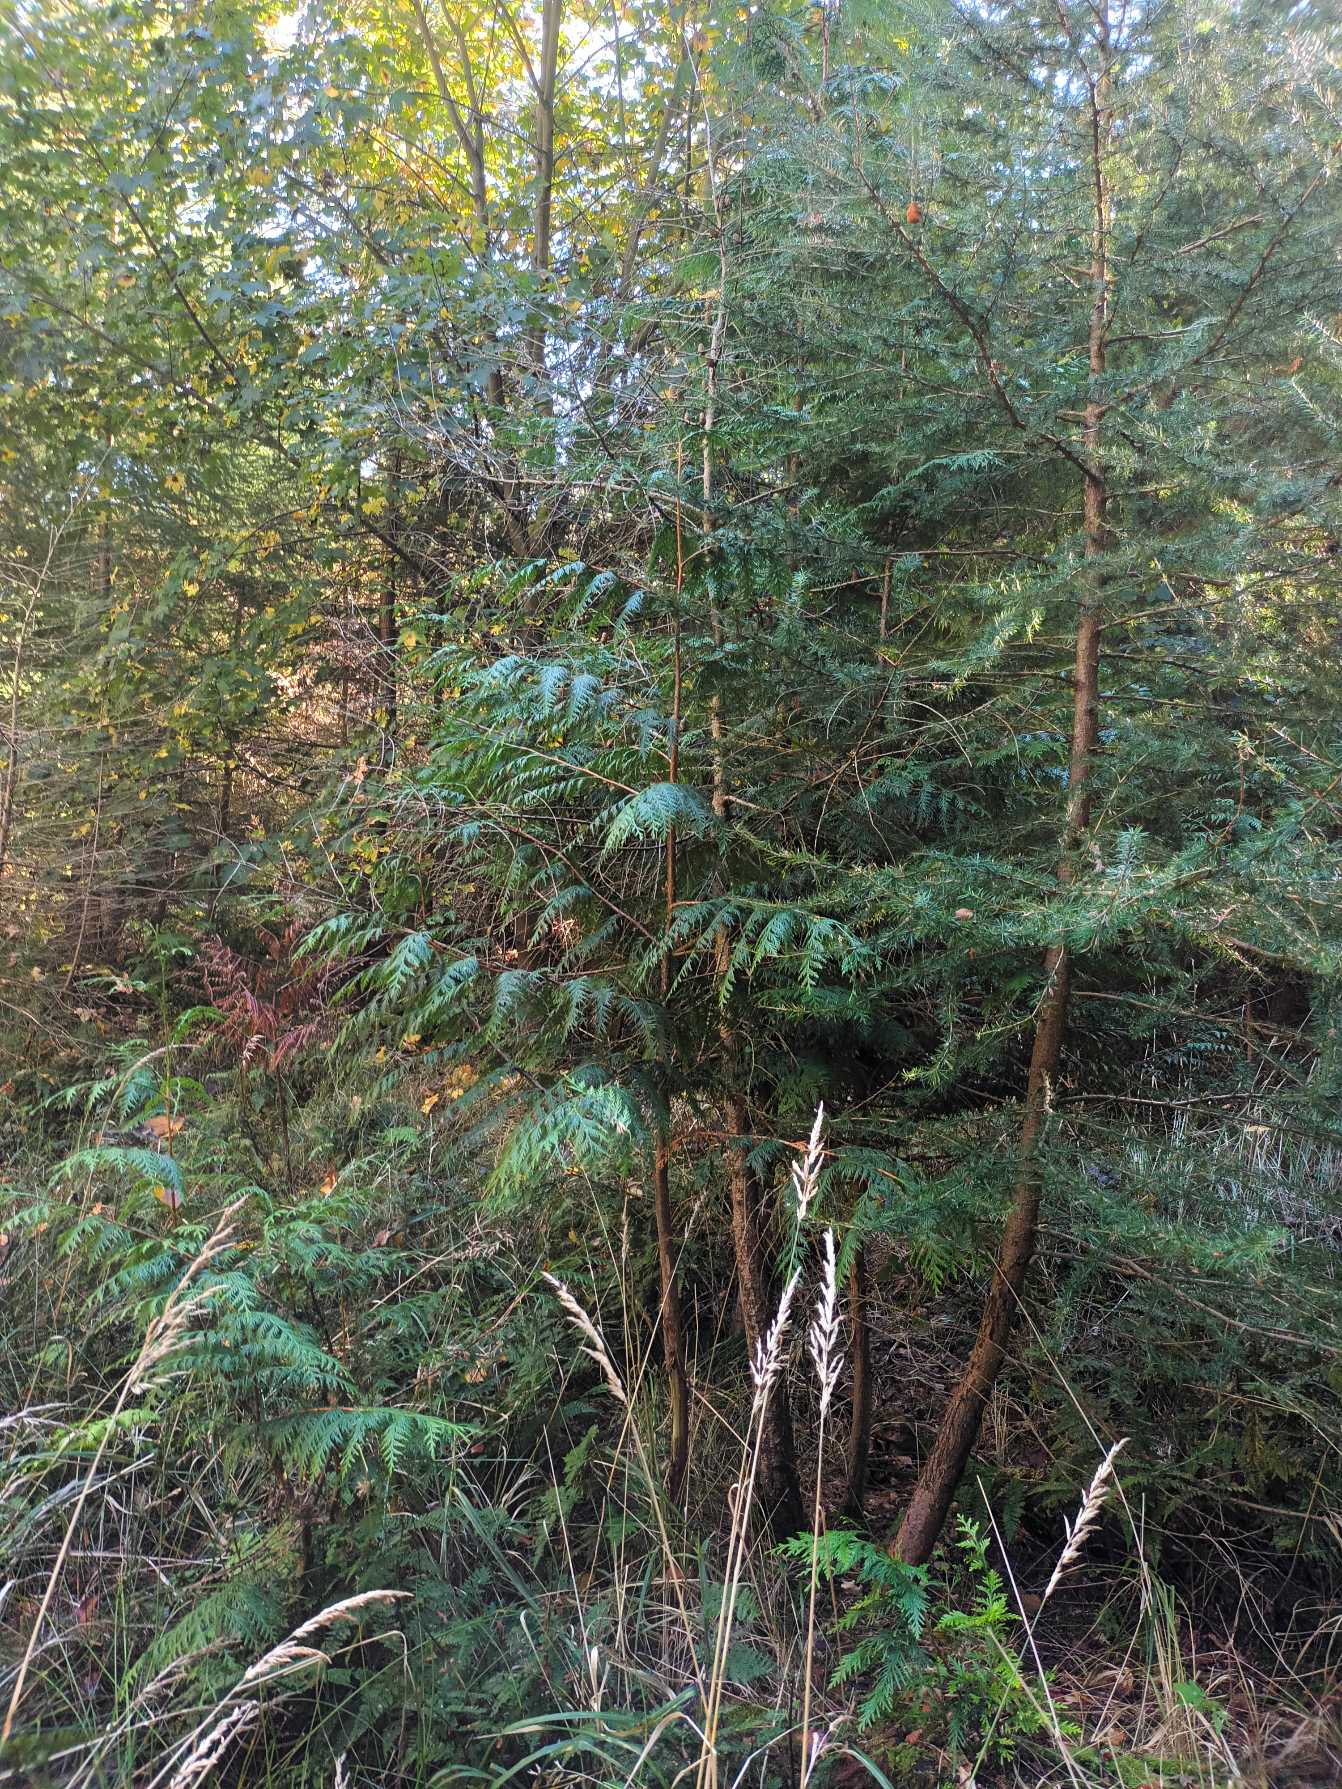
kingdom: Plantae
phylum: Tracheophyta
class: Pinopsida
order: Pinales
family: Cupressaceae
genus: Thuja
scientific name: Thuja plicata
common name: Kæmpe-thuja
